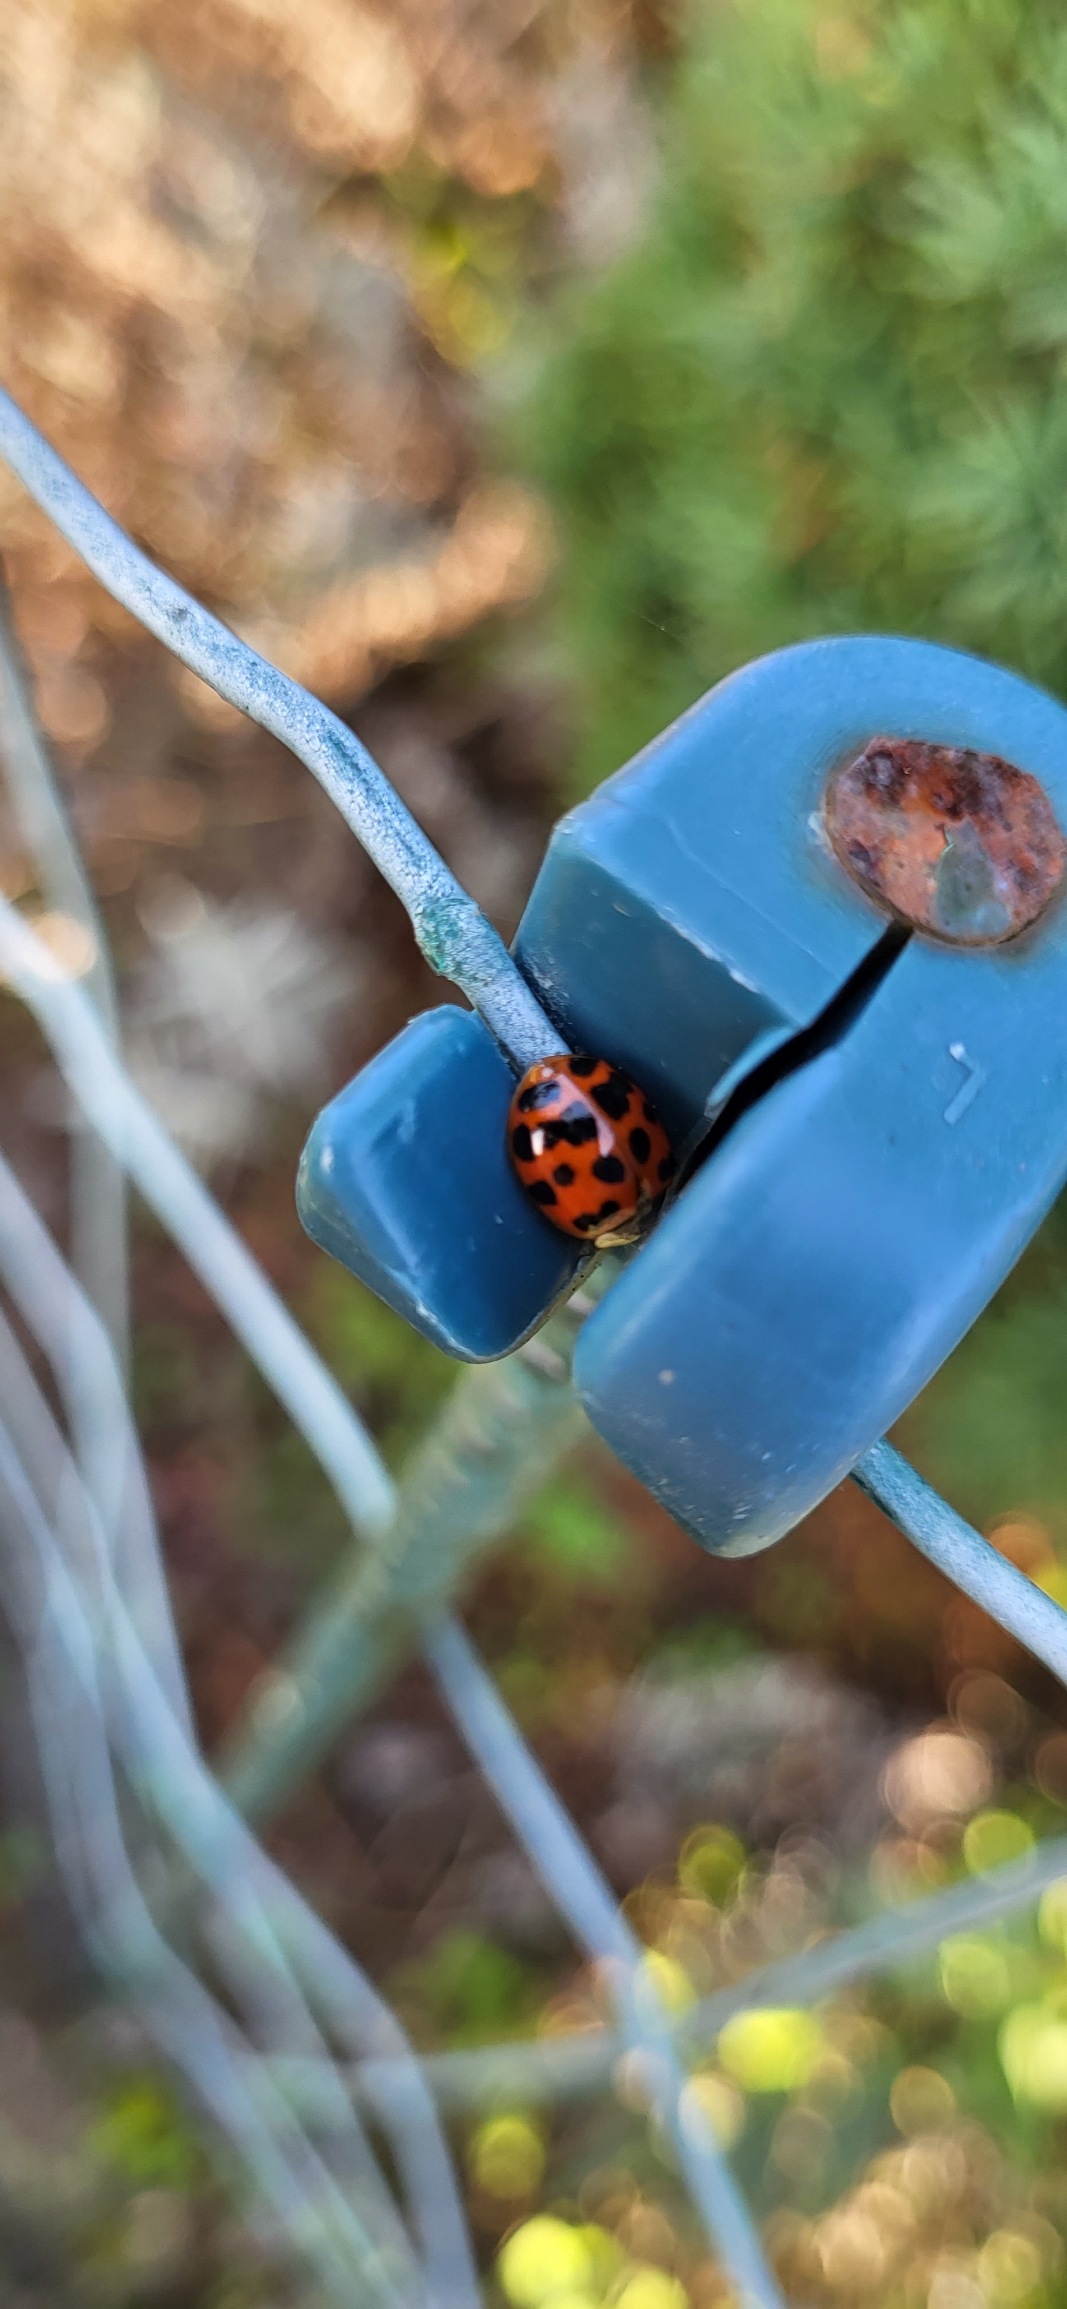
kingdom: Animalia
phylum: Arthropoda
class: Insecta
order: Coleoptera
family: Coccinellidae
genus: Harmonia
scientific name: Harmonia axyridis
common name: Harlekinmariehøne
